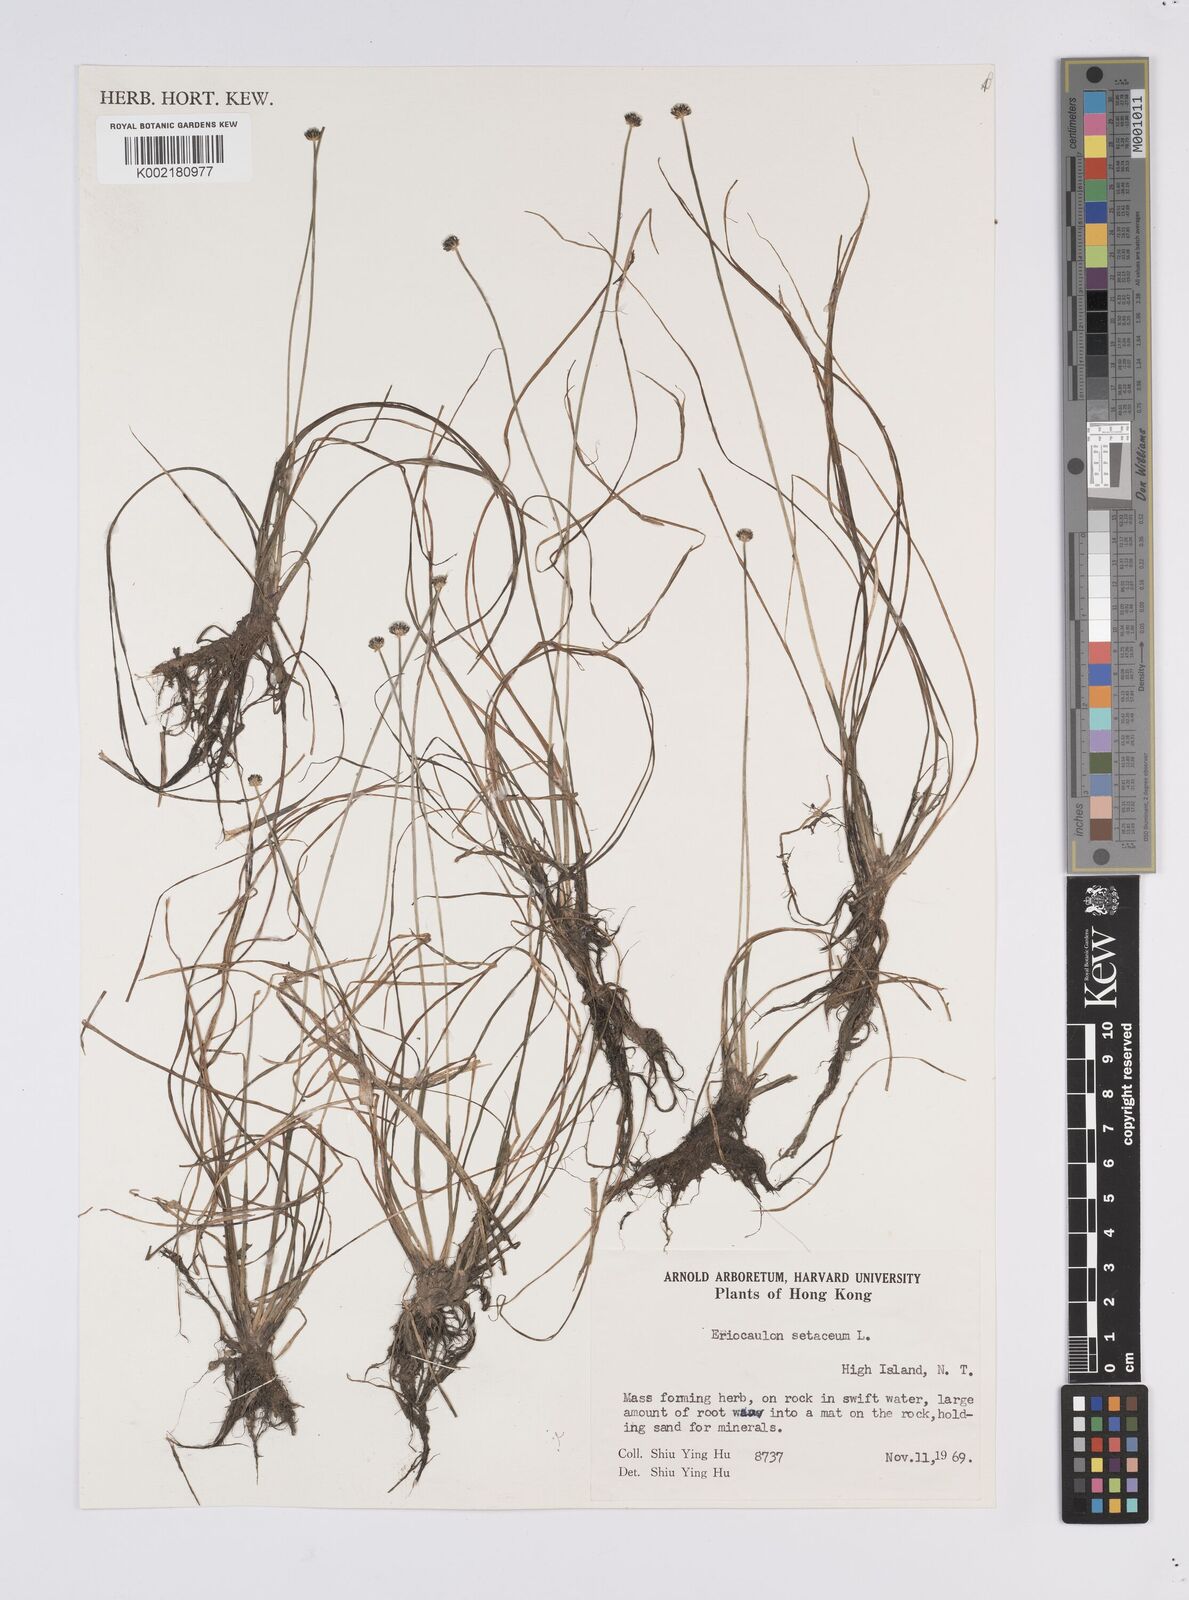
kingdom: Plantae
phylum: Tracheophyta
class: Liliopsida
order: Poales
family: Eriocaulaceae
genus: Eriocaulon
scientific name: Eriocaulon setaceum
